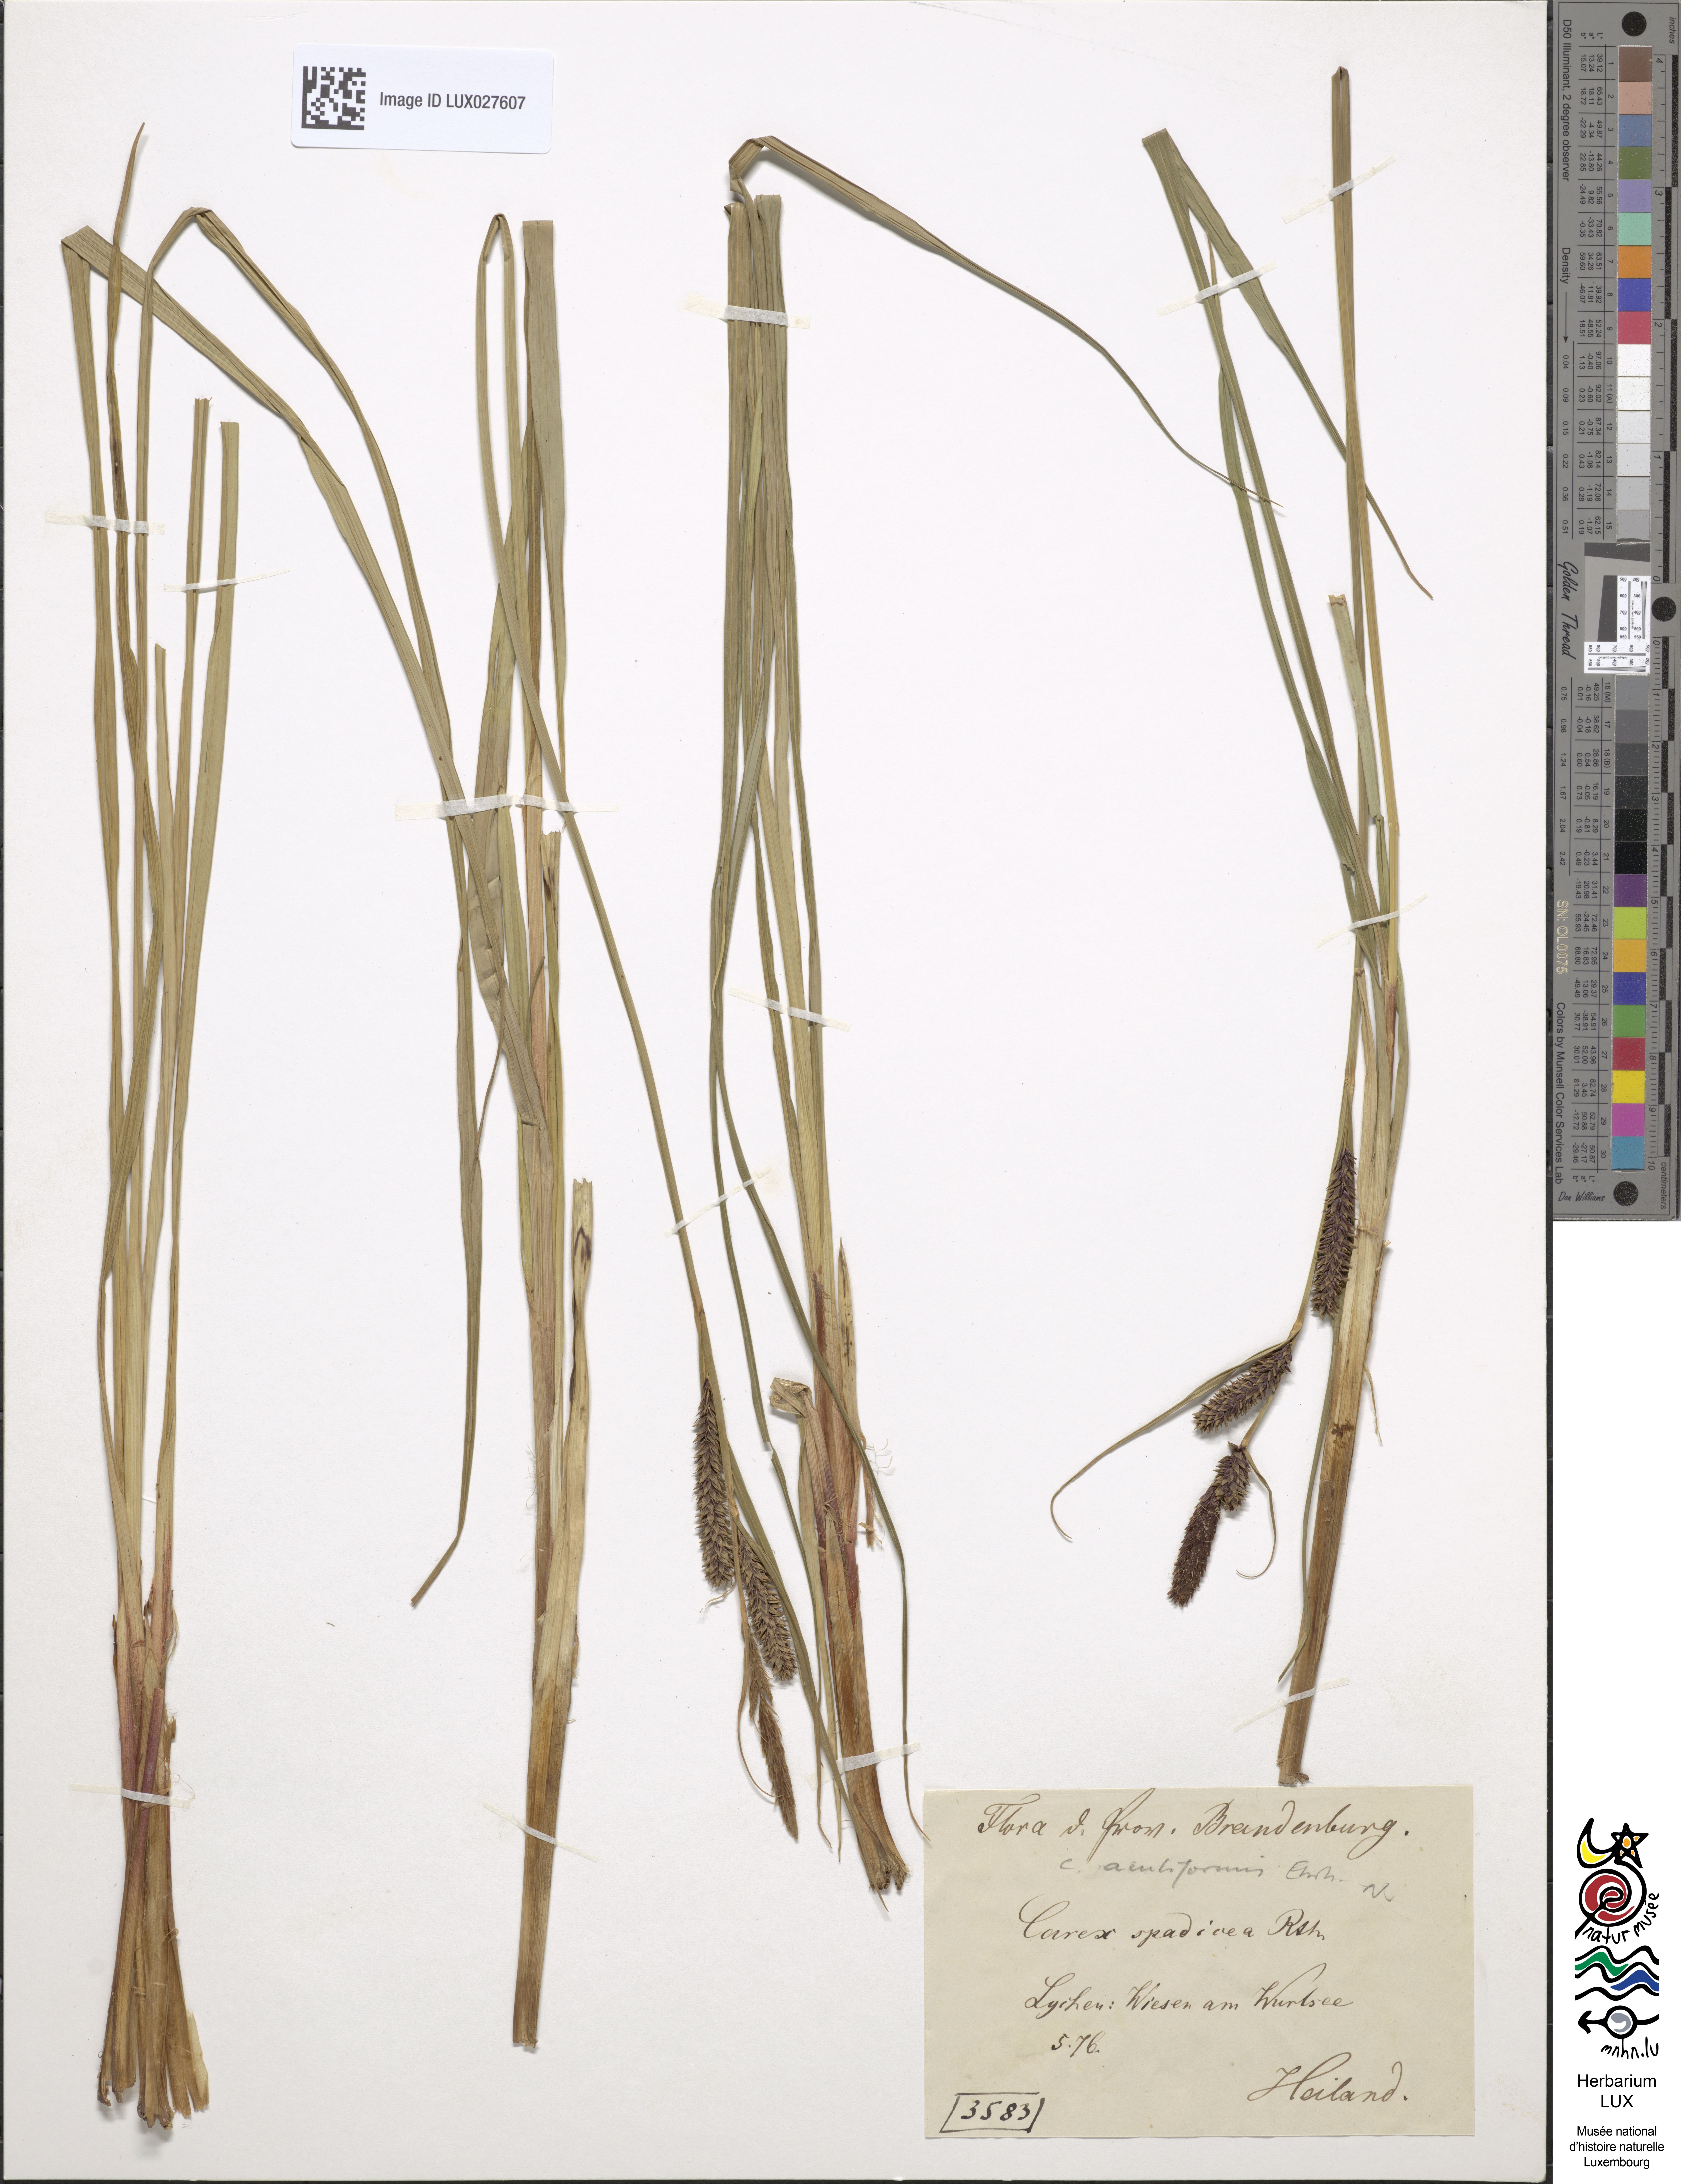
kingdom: Plantae
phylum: Tracheophyta
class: Liliopsida
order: Poales
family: Cyperaceae
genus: Carex
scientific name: Carex acutiformis
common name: Lesser pond-sedge
